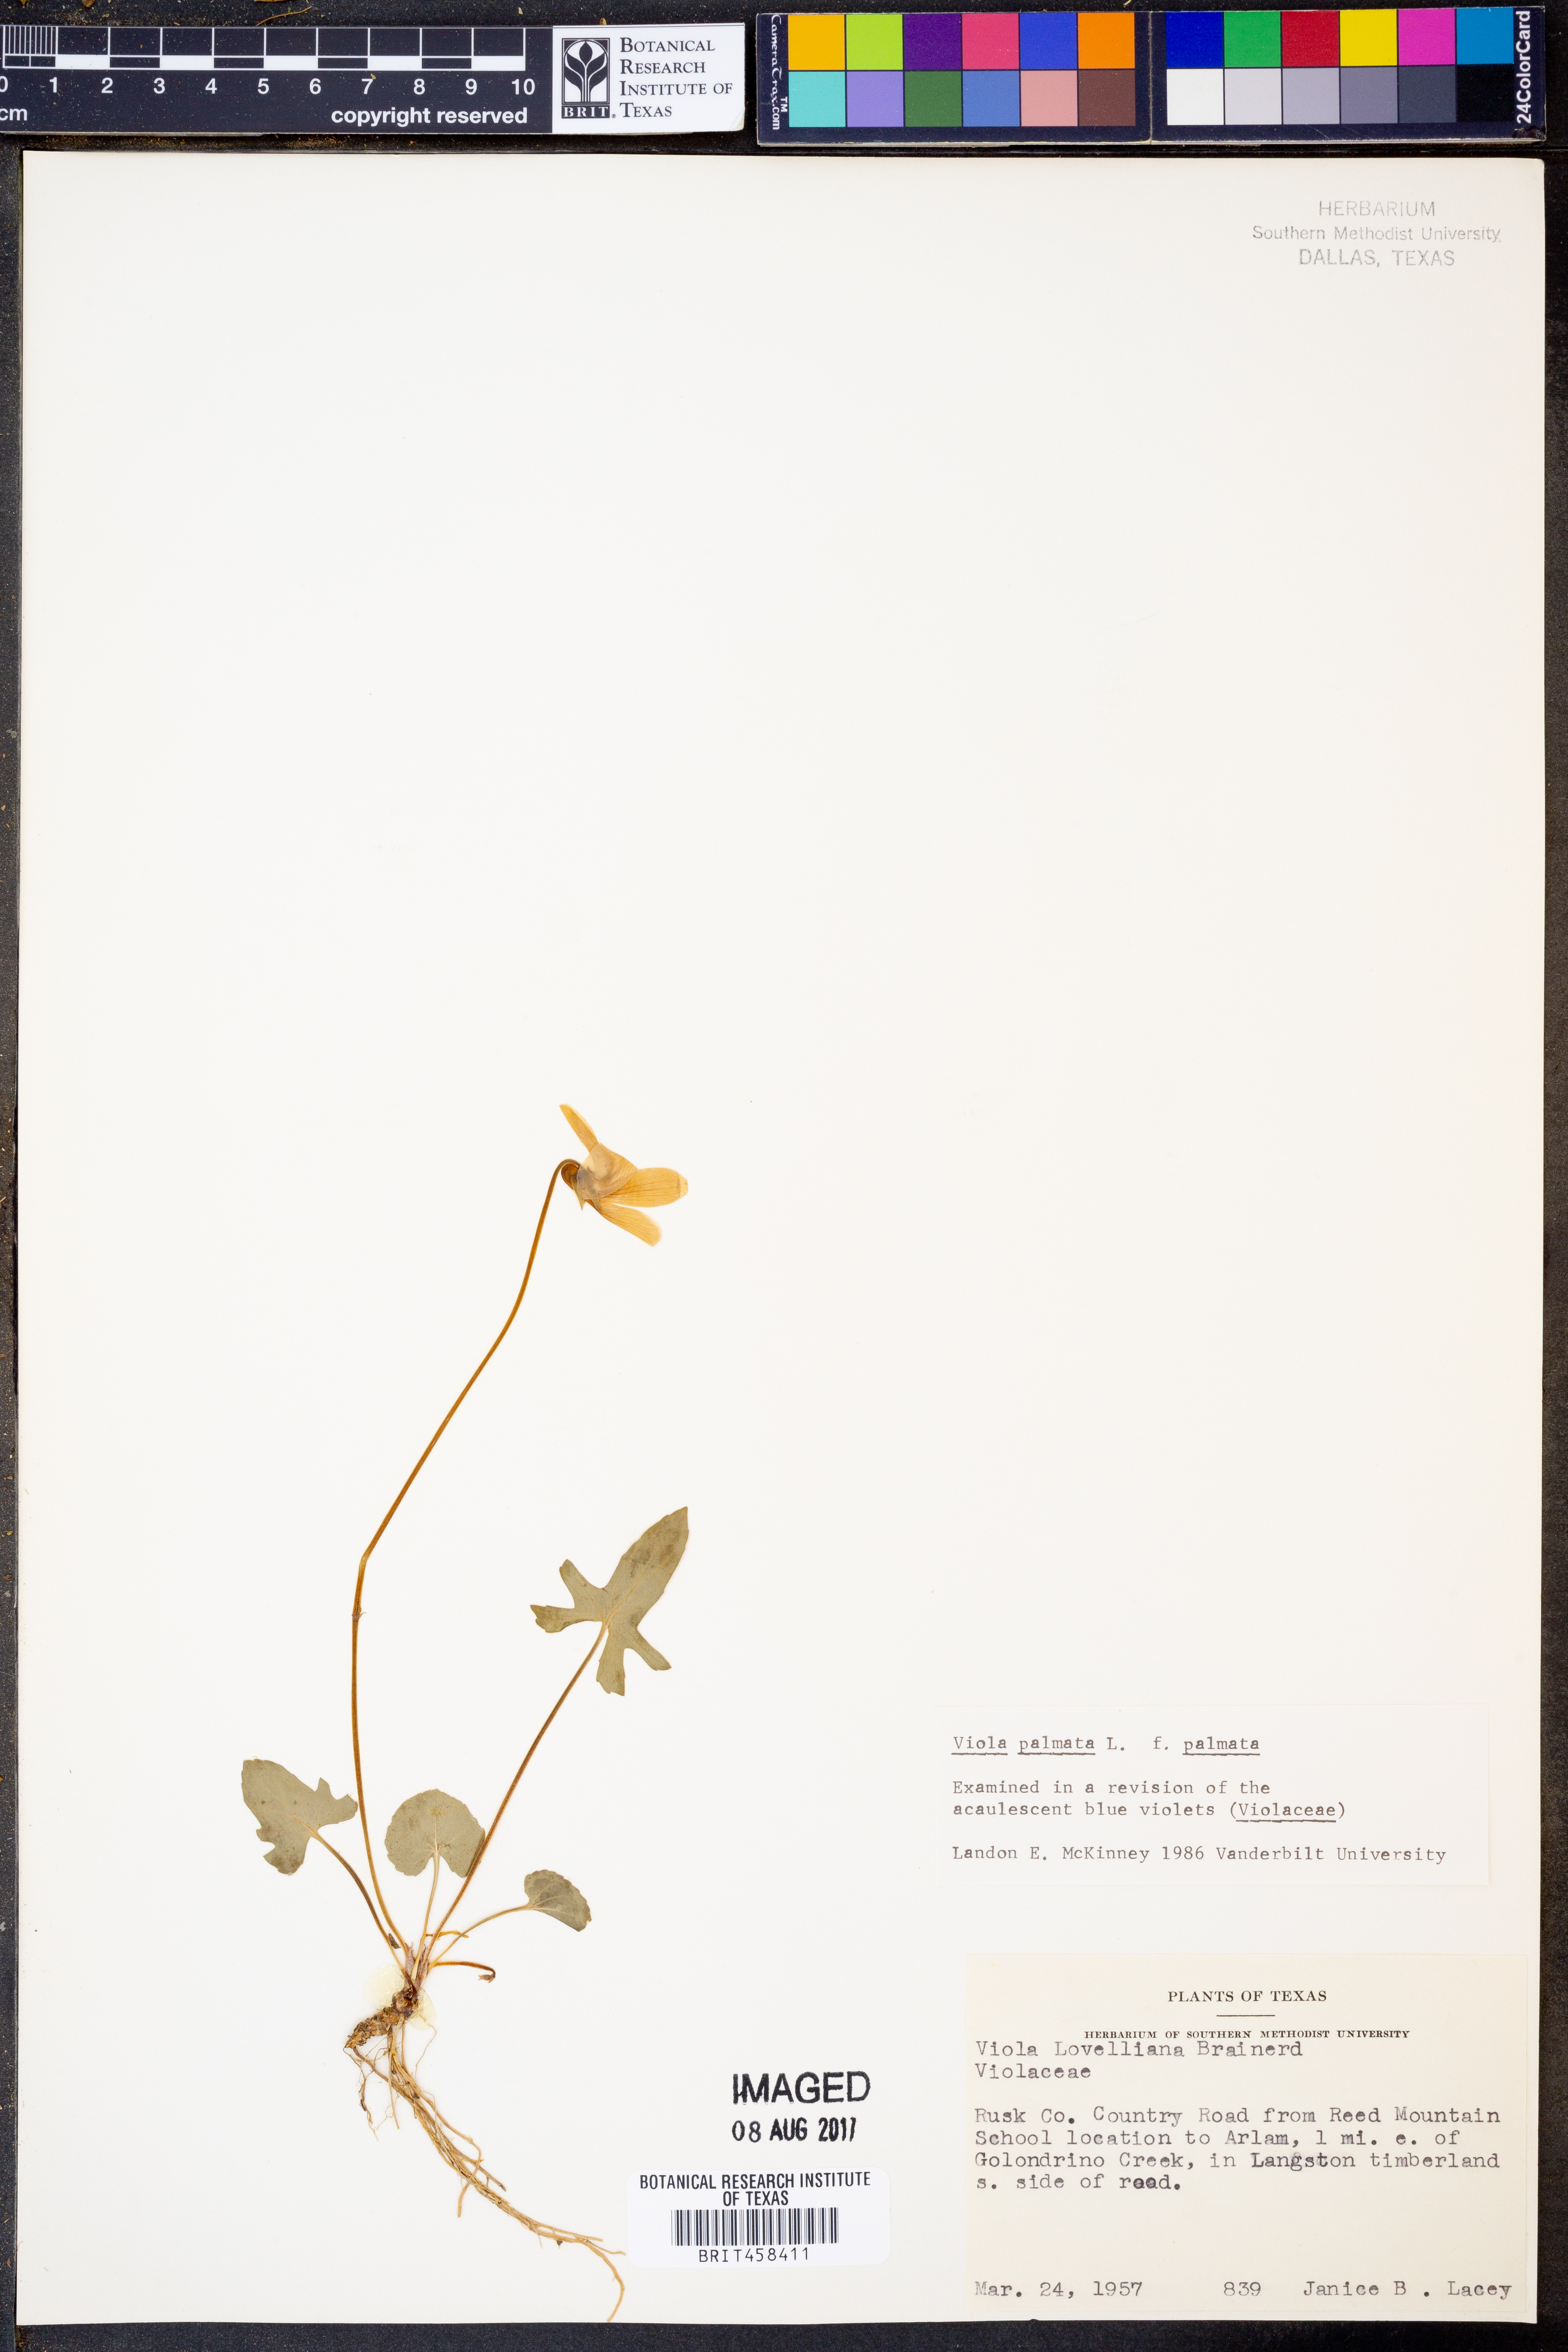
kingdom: Plantae
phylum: Tracheophyta
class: Magnoliopsida
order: Malpighiales
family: Violaceae
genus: Viola
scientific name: Viola palmata
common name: Early blue violet
